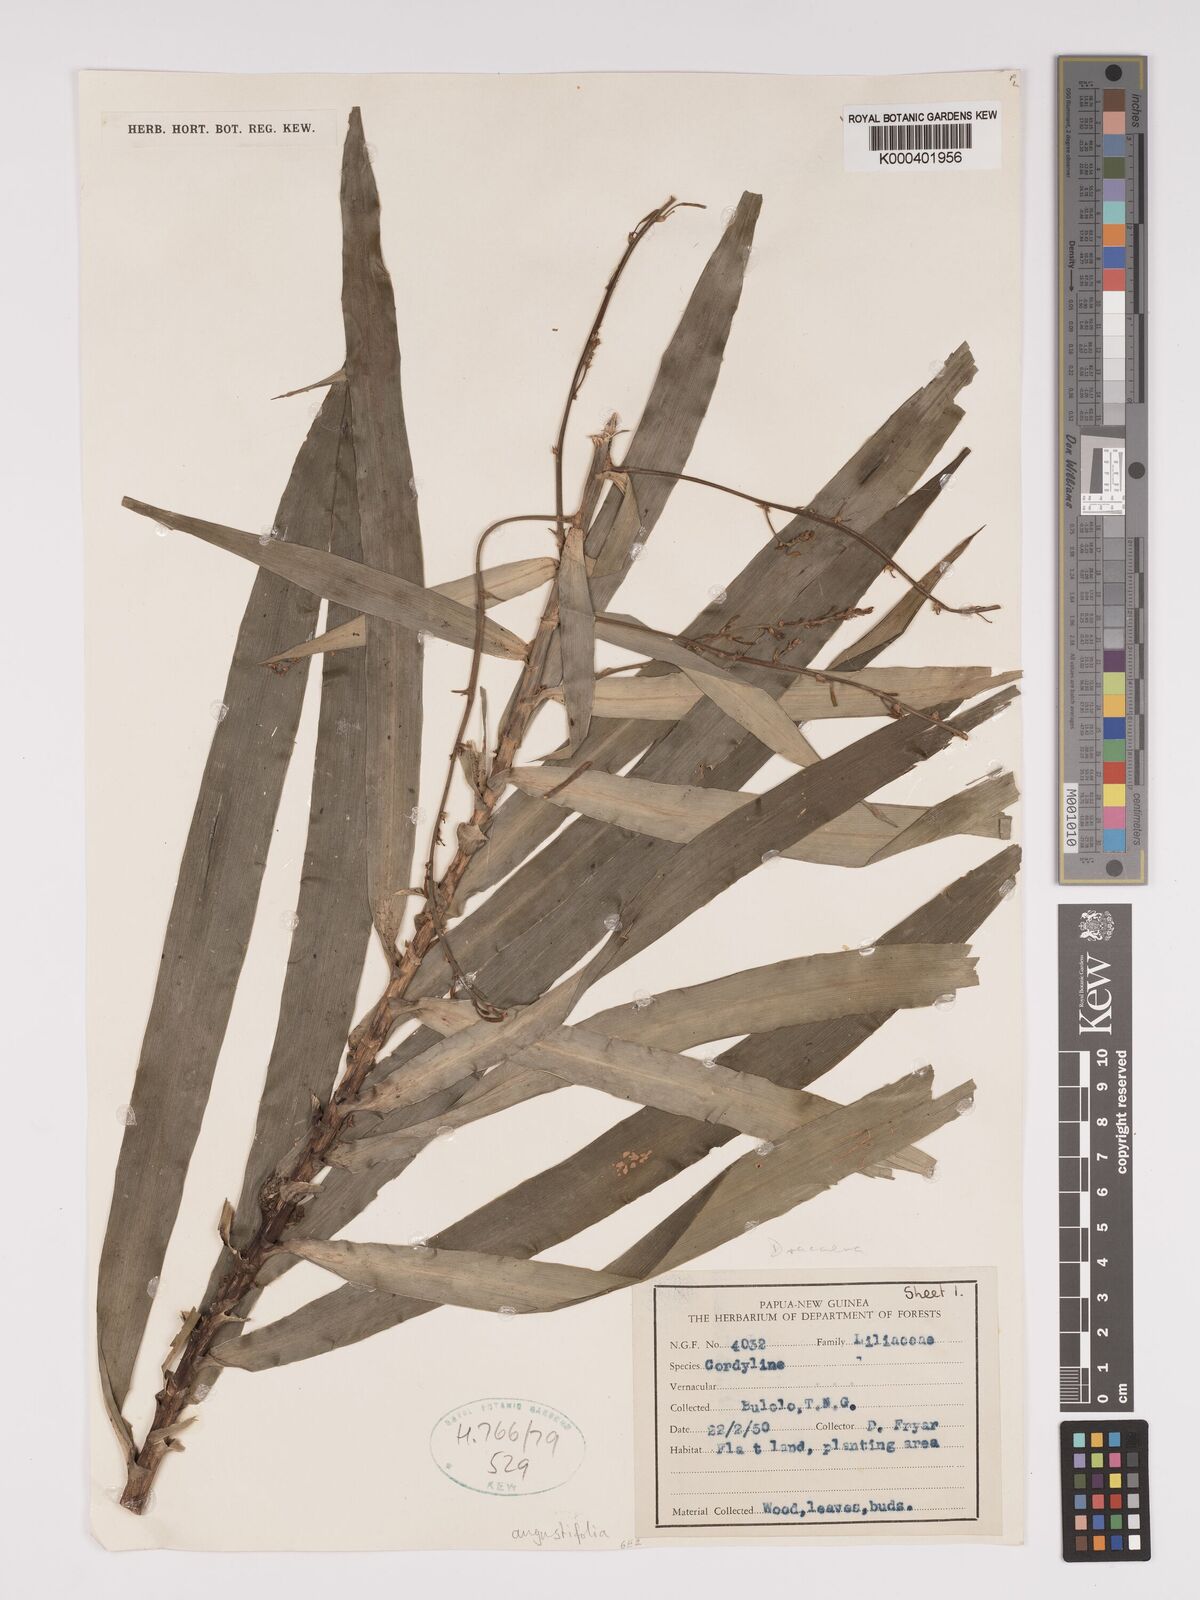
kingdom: Plantae
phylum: Tracheophyta
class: Liliopsida
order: Asparagales
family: Asparagaceae
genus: Dracaena
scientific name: Dracaena angustifolia
